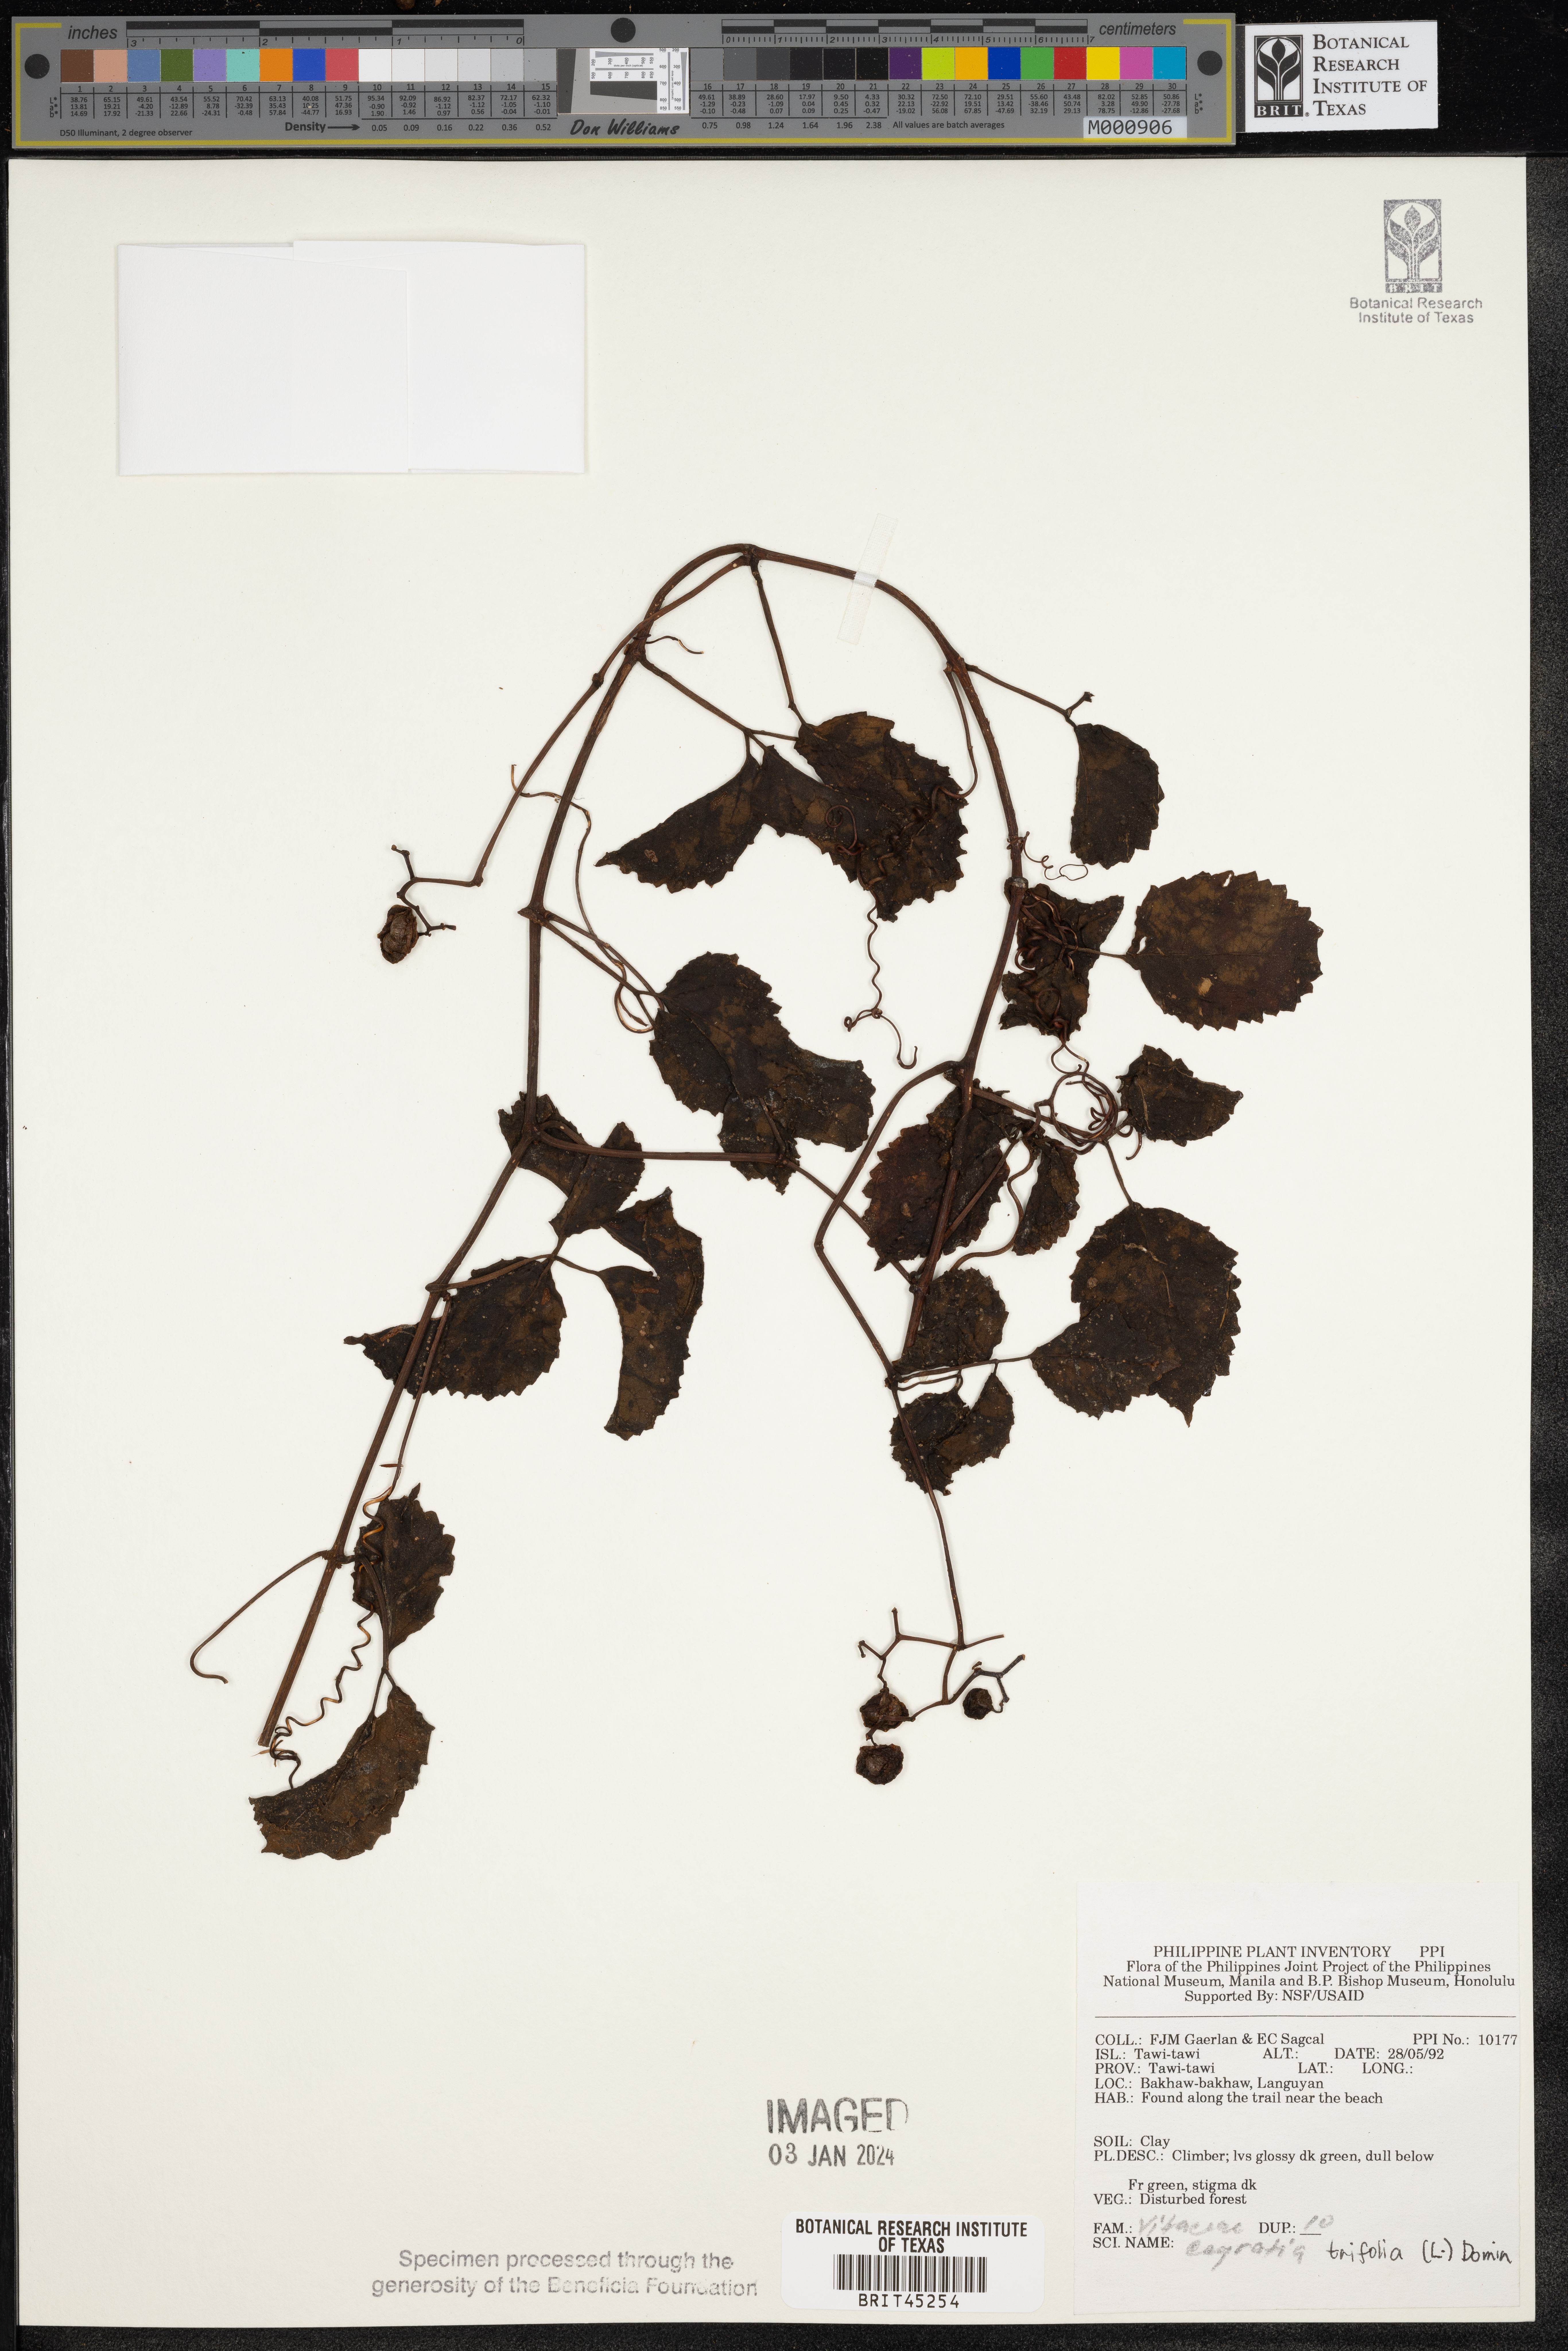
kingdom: Plantae
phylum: Tracheophyta
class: Magnoliopsida
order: Vitales
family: Vitaceae
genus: Causonis
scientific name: Causonis trifolia
